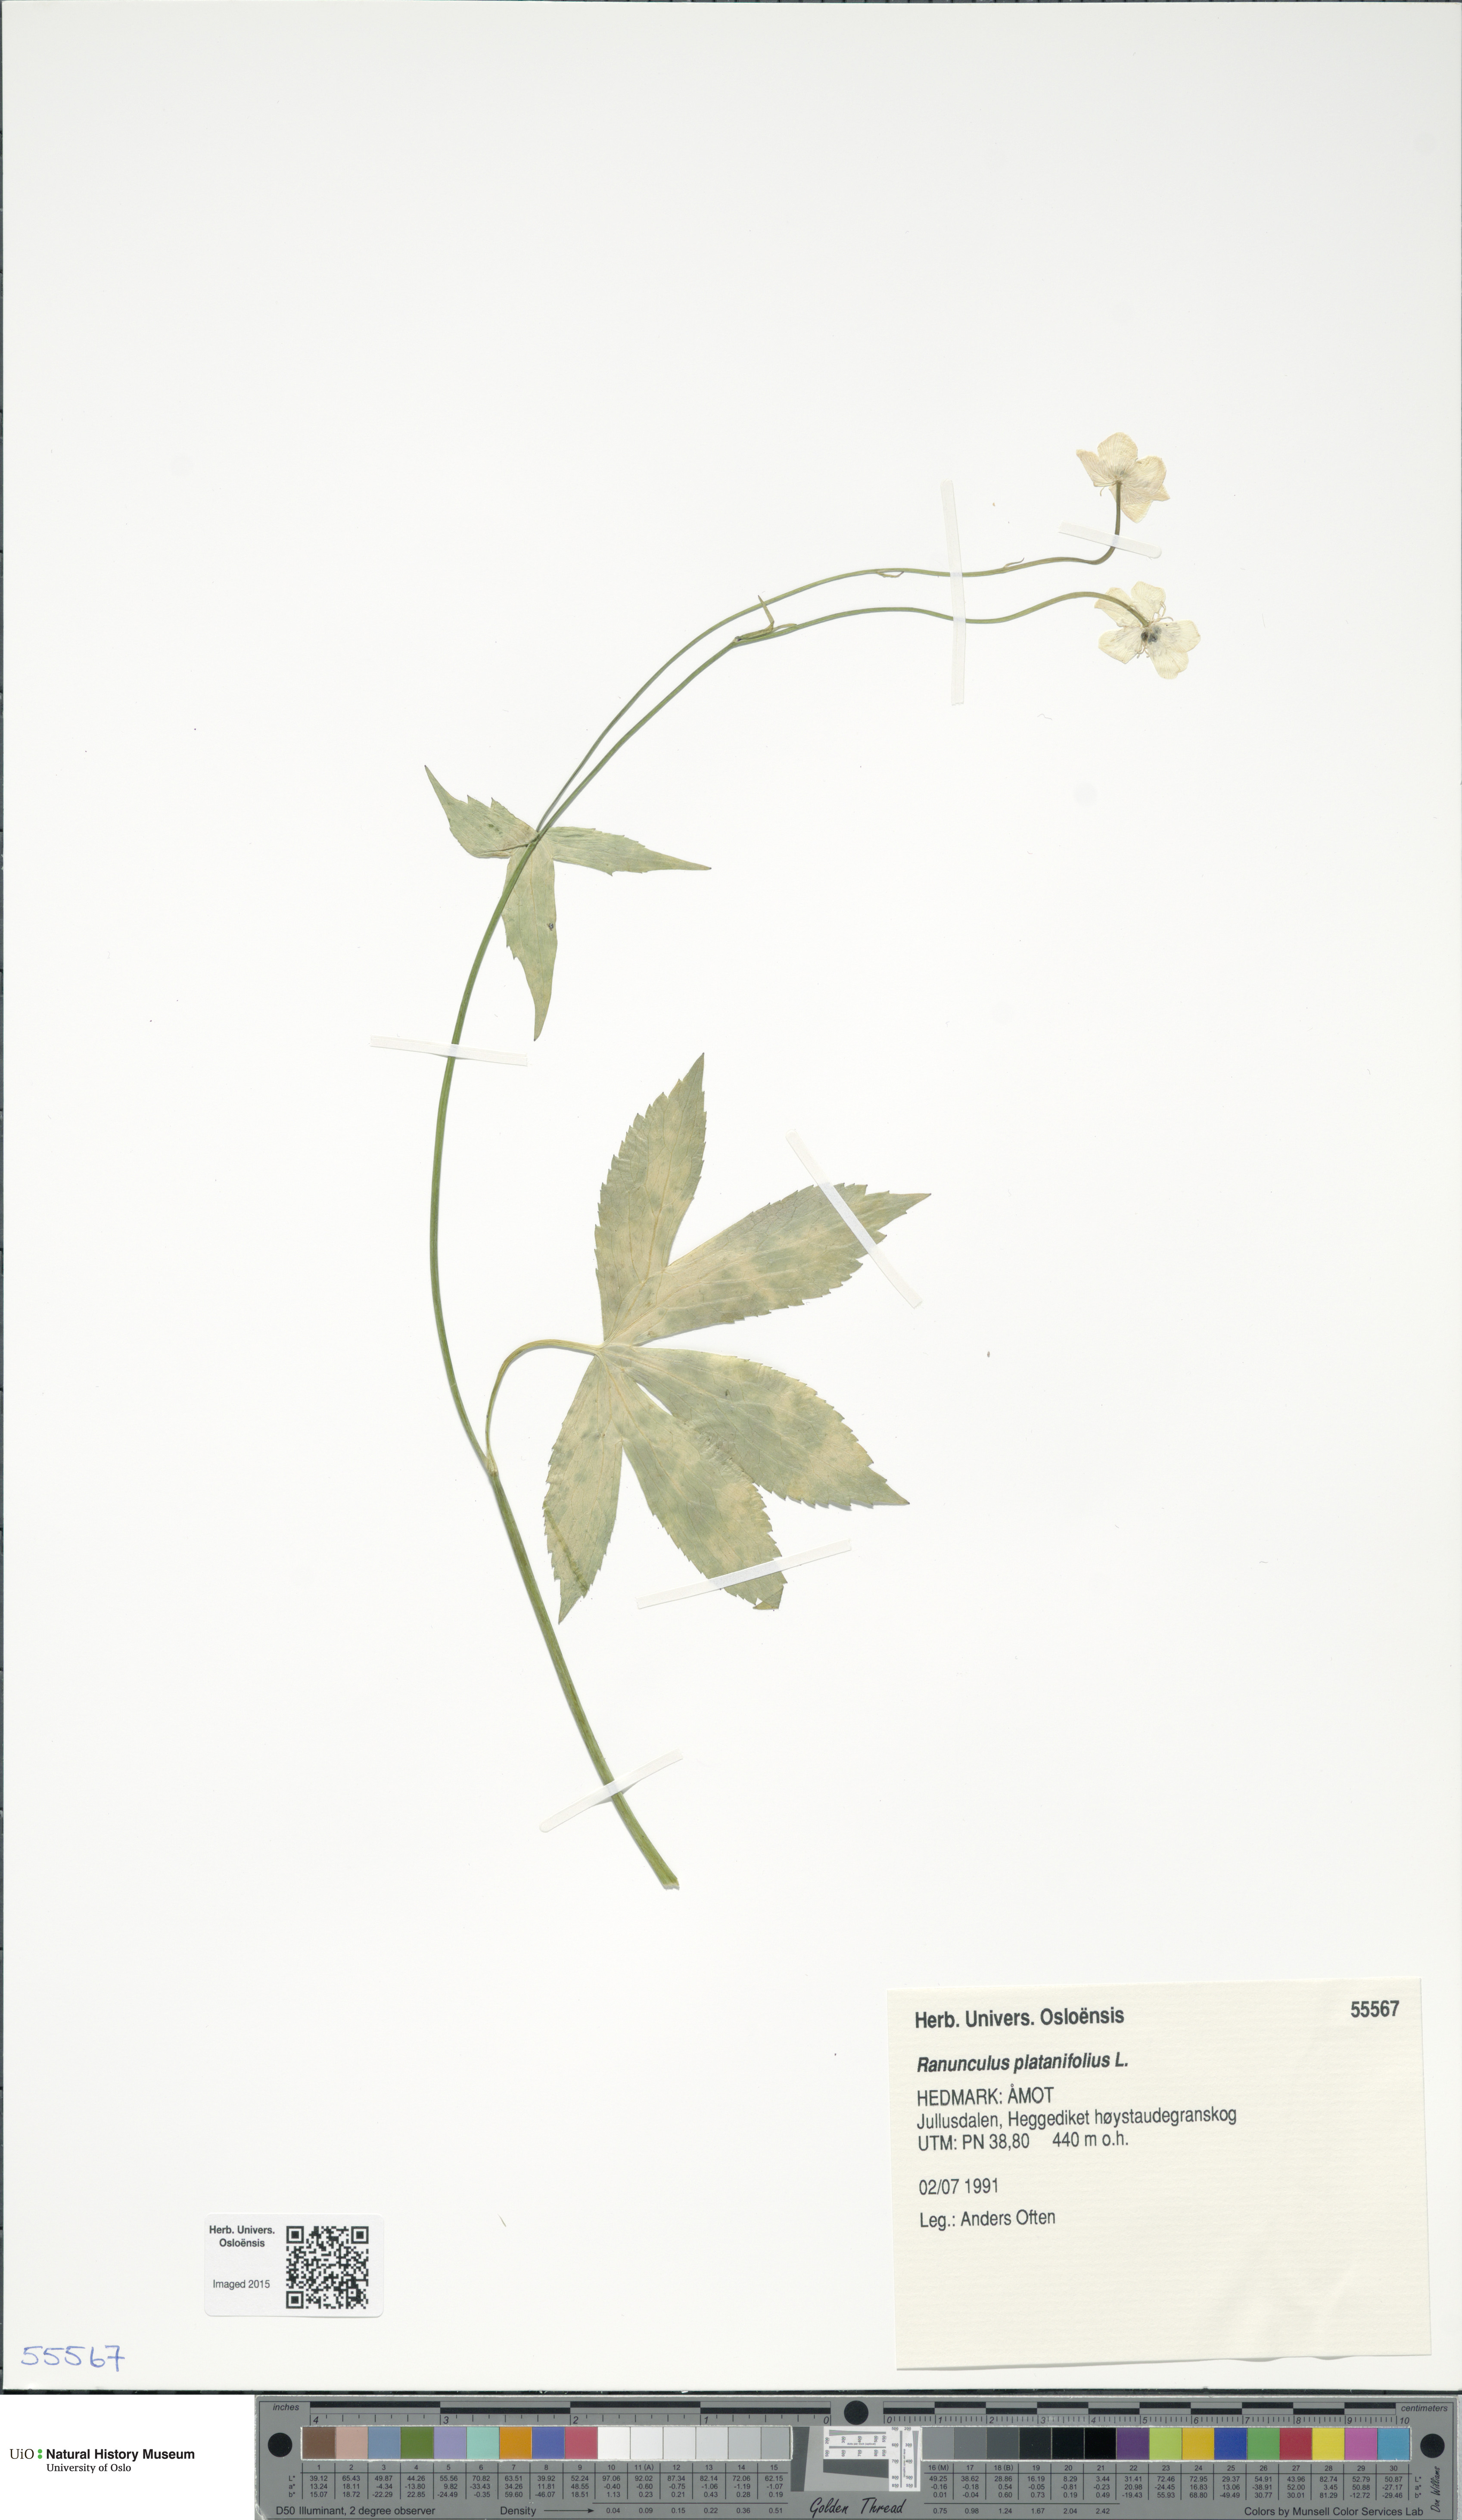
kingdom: Plantae
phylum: Tracheophyta
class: Magnoliopsida
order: Ranunculales
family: Ranunculaceae
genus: Ranunculus
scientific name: Ranunculus platanifolius
